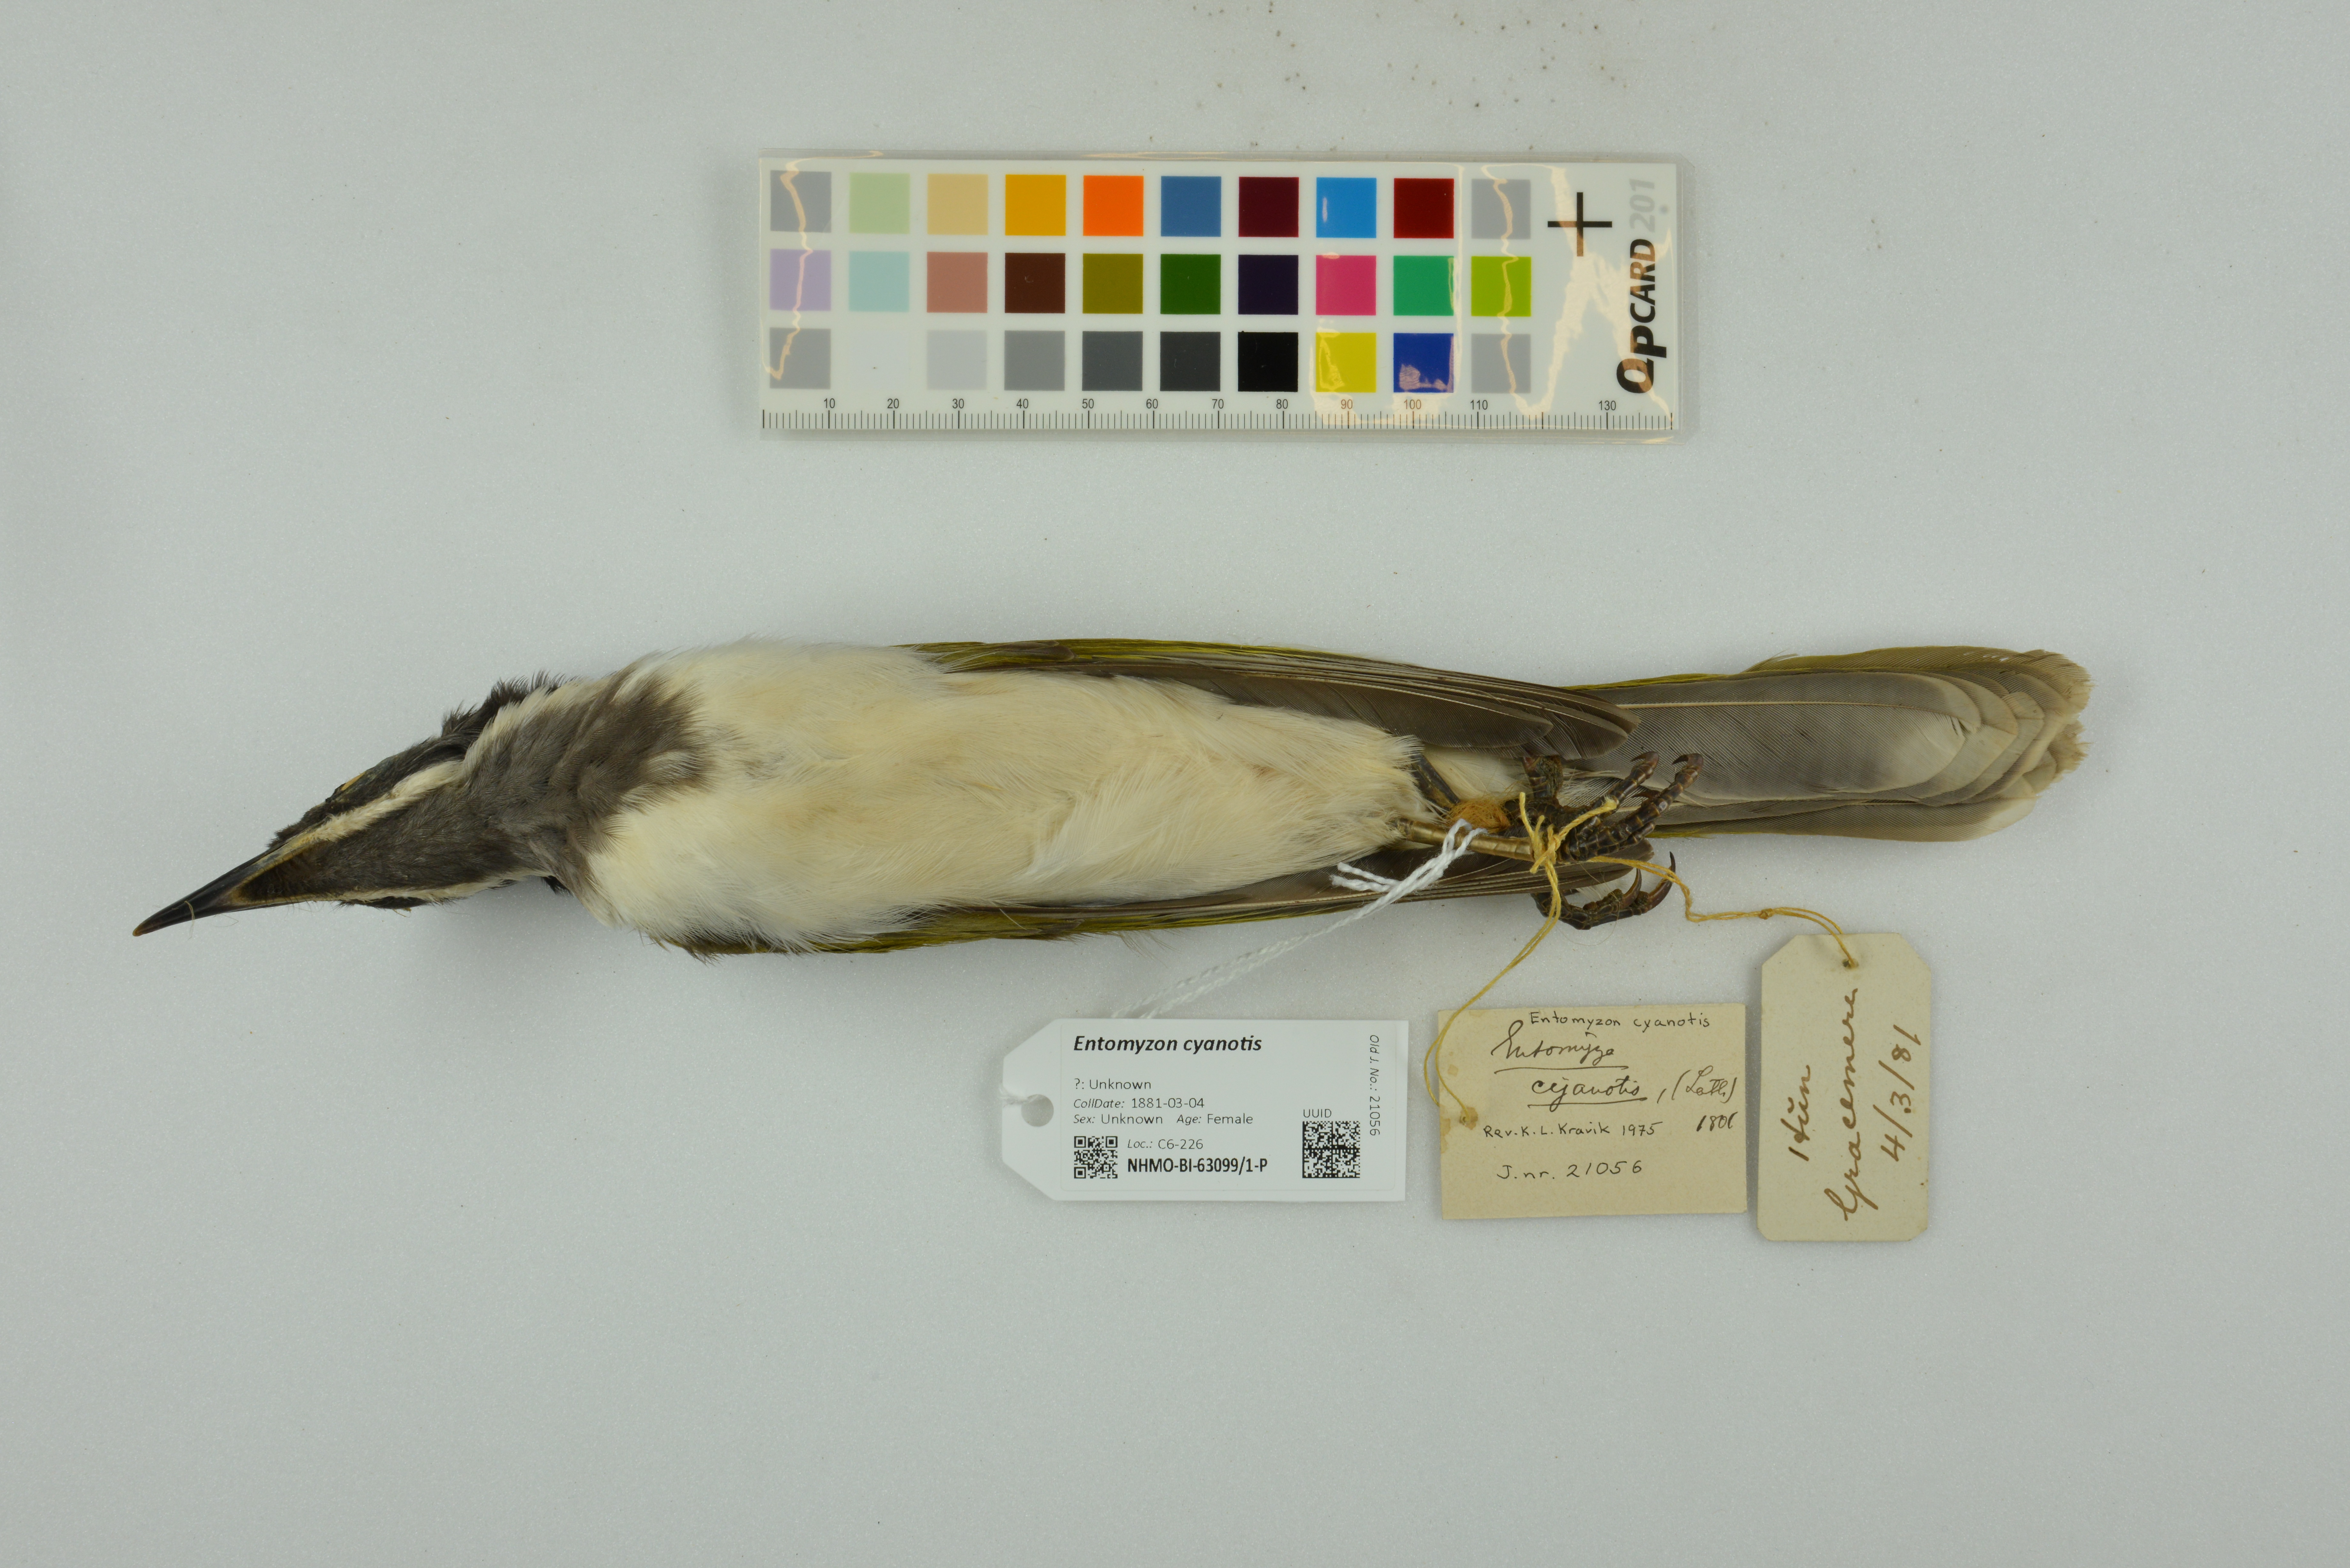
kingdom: Animalia
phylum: Chordata
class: Aves
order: Passeriformes
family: Meliphagidae
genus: Entomyzon
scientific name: Entomyzon cyanotis
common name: Blue-faced honeyeater
